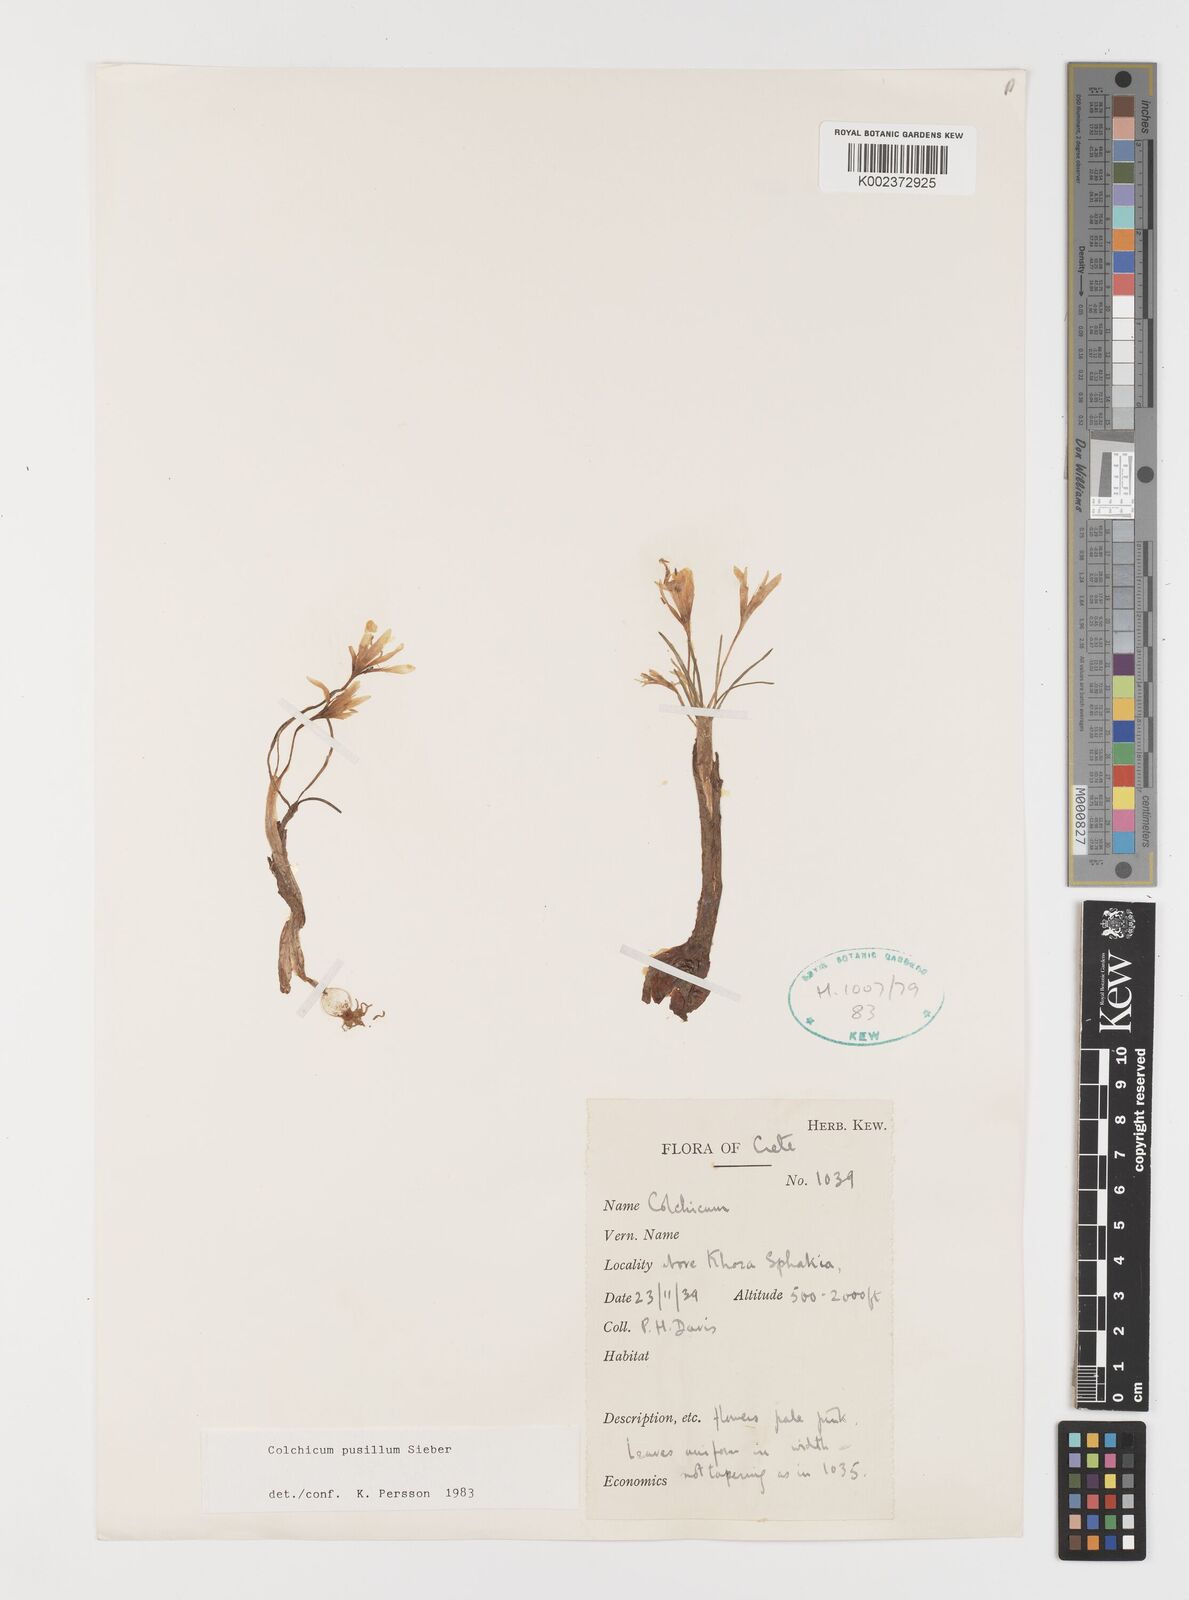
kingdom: Plantae
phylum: Tracheophyta
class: Liliopsida
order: Liliales
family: Colchicaceae
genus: Colchicum
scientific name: Colchicum pusillum
